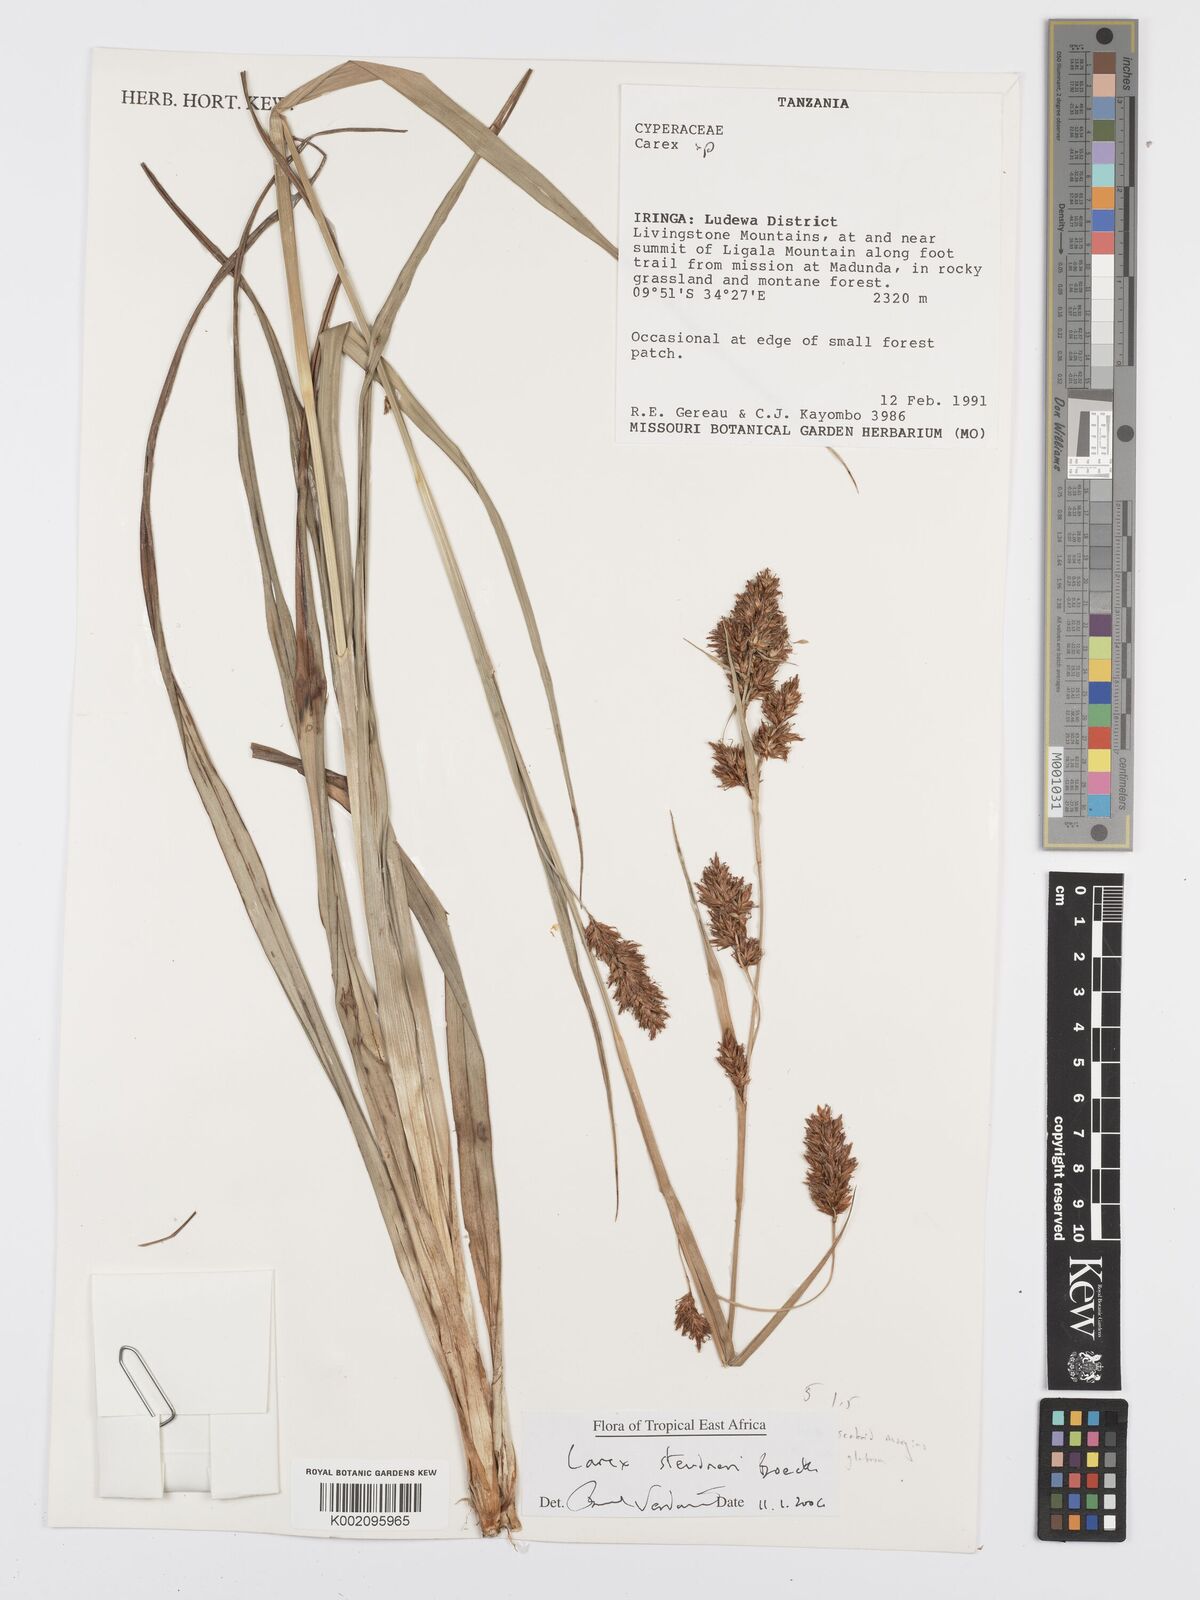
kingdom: Plantae
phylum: Tracheophyta
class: Liliopsida
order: Poales
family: Cyperaceae
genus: Carex
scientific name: Carex steudneri
